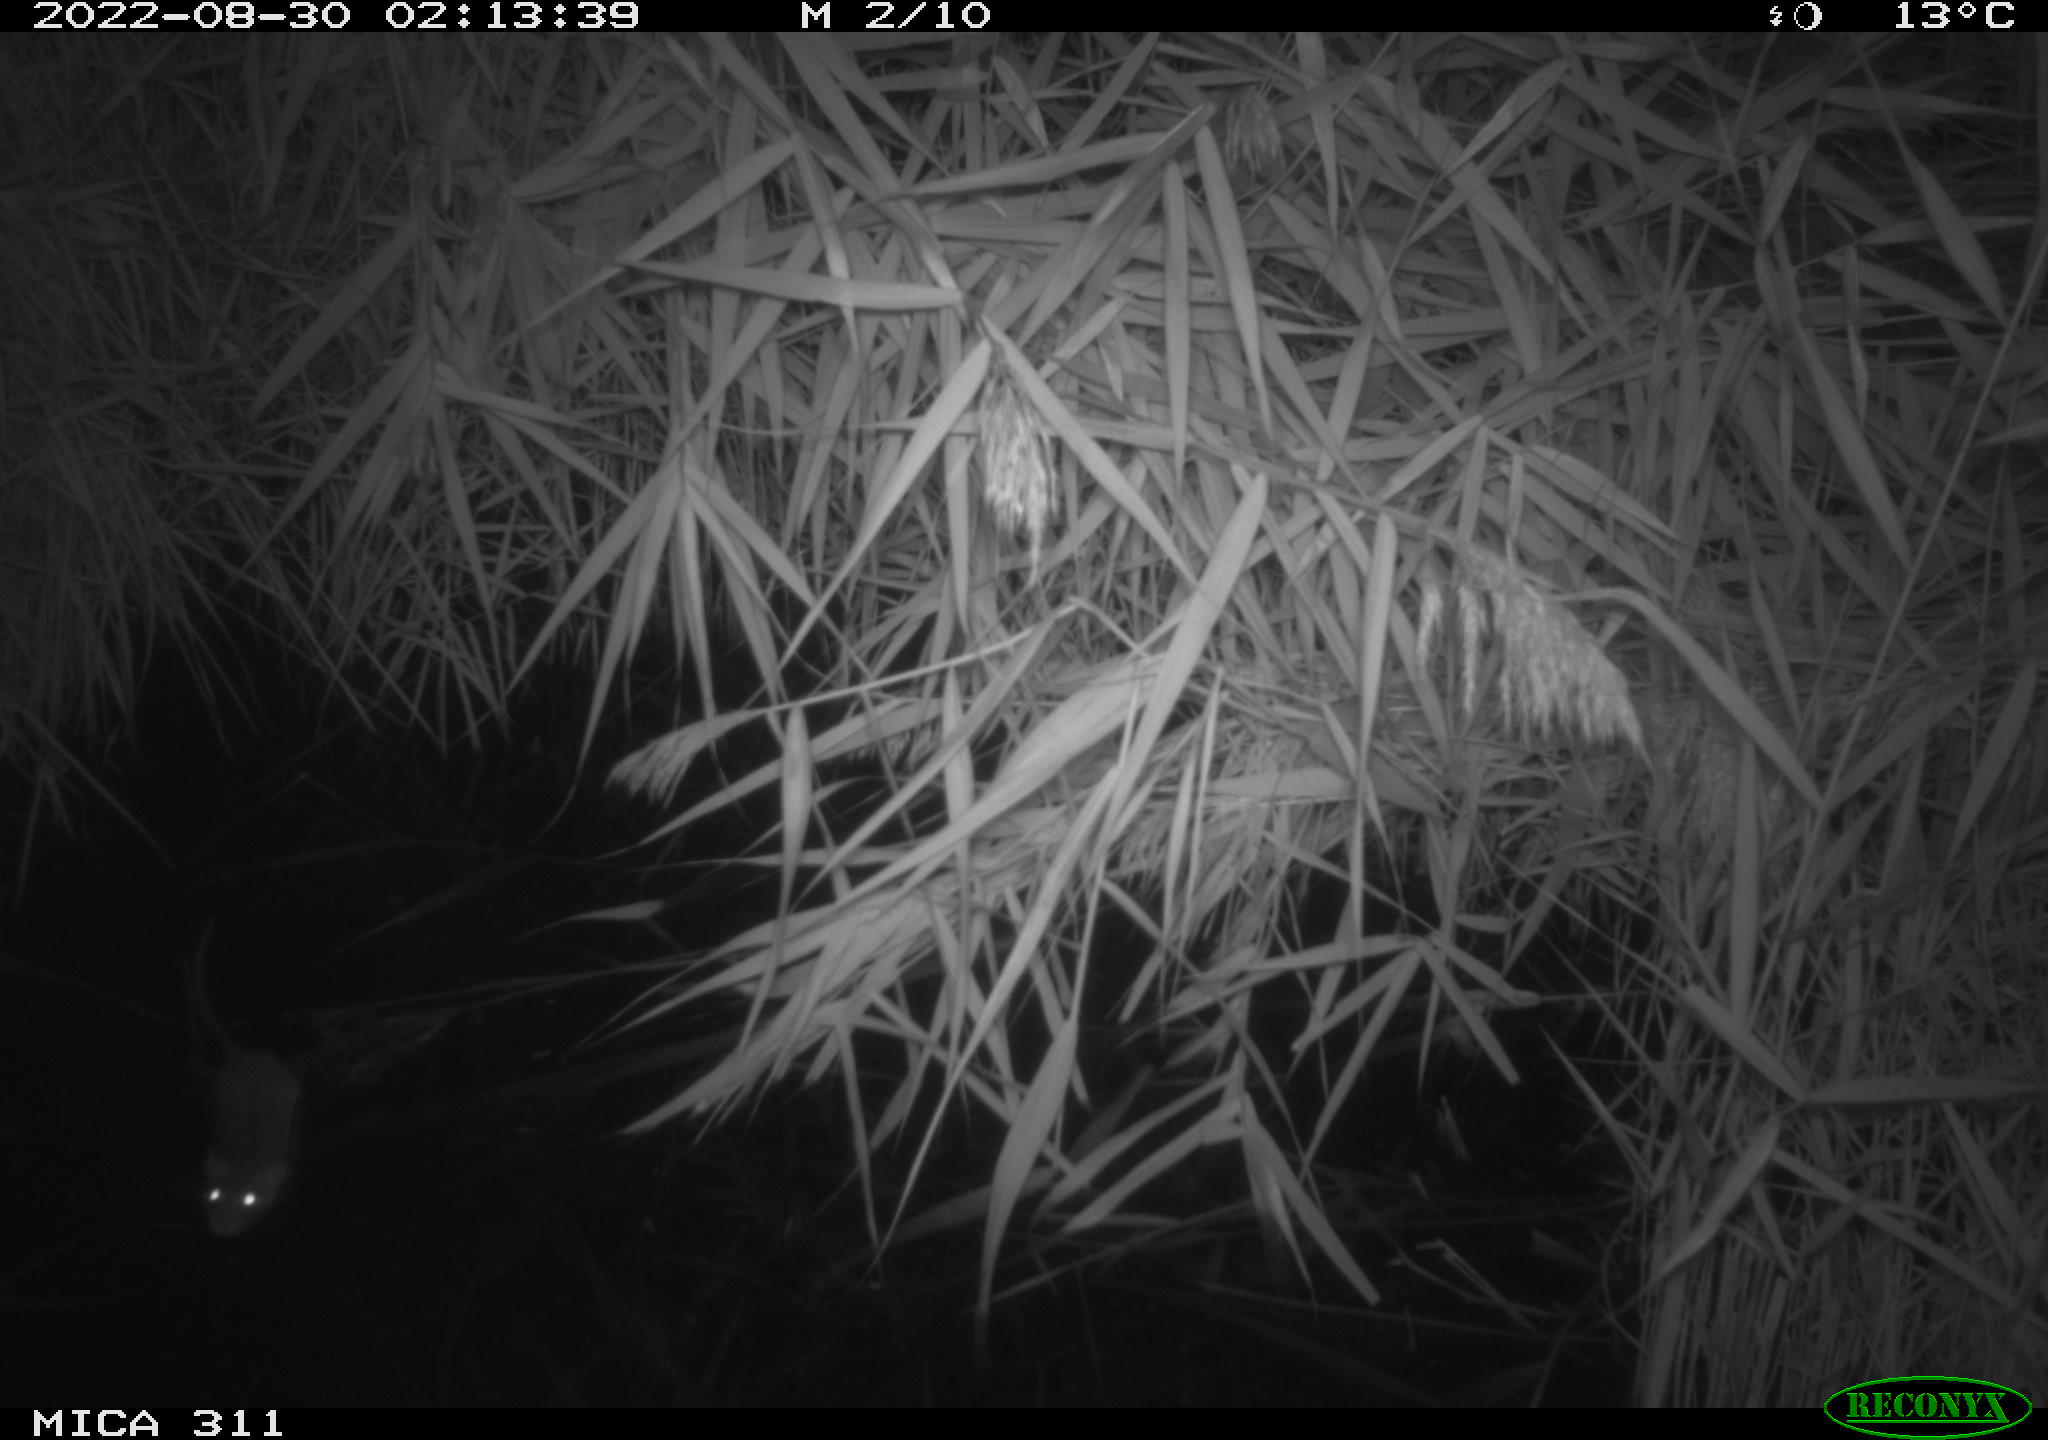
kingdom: Animalia
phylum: Chordata
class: Mammalia
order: Rodentia
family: Muridae
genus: Rattus
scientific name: Rattus norvegicus
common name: Brown rat
